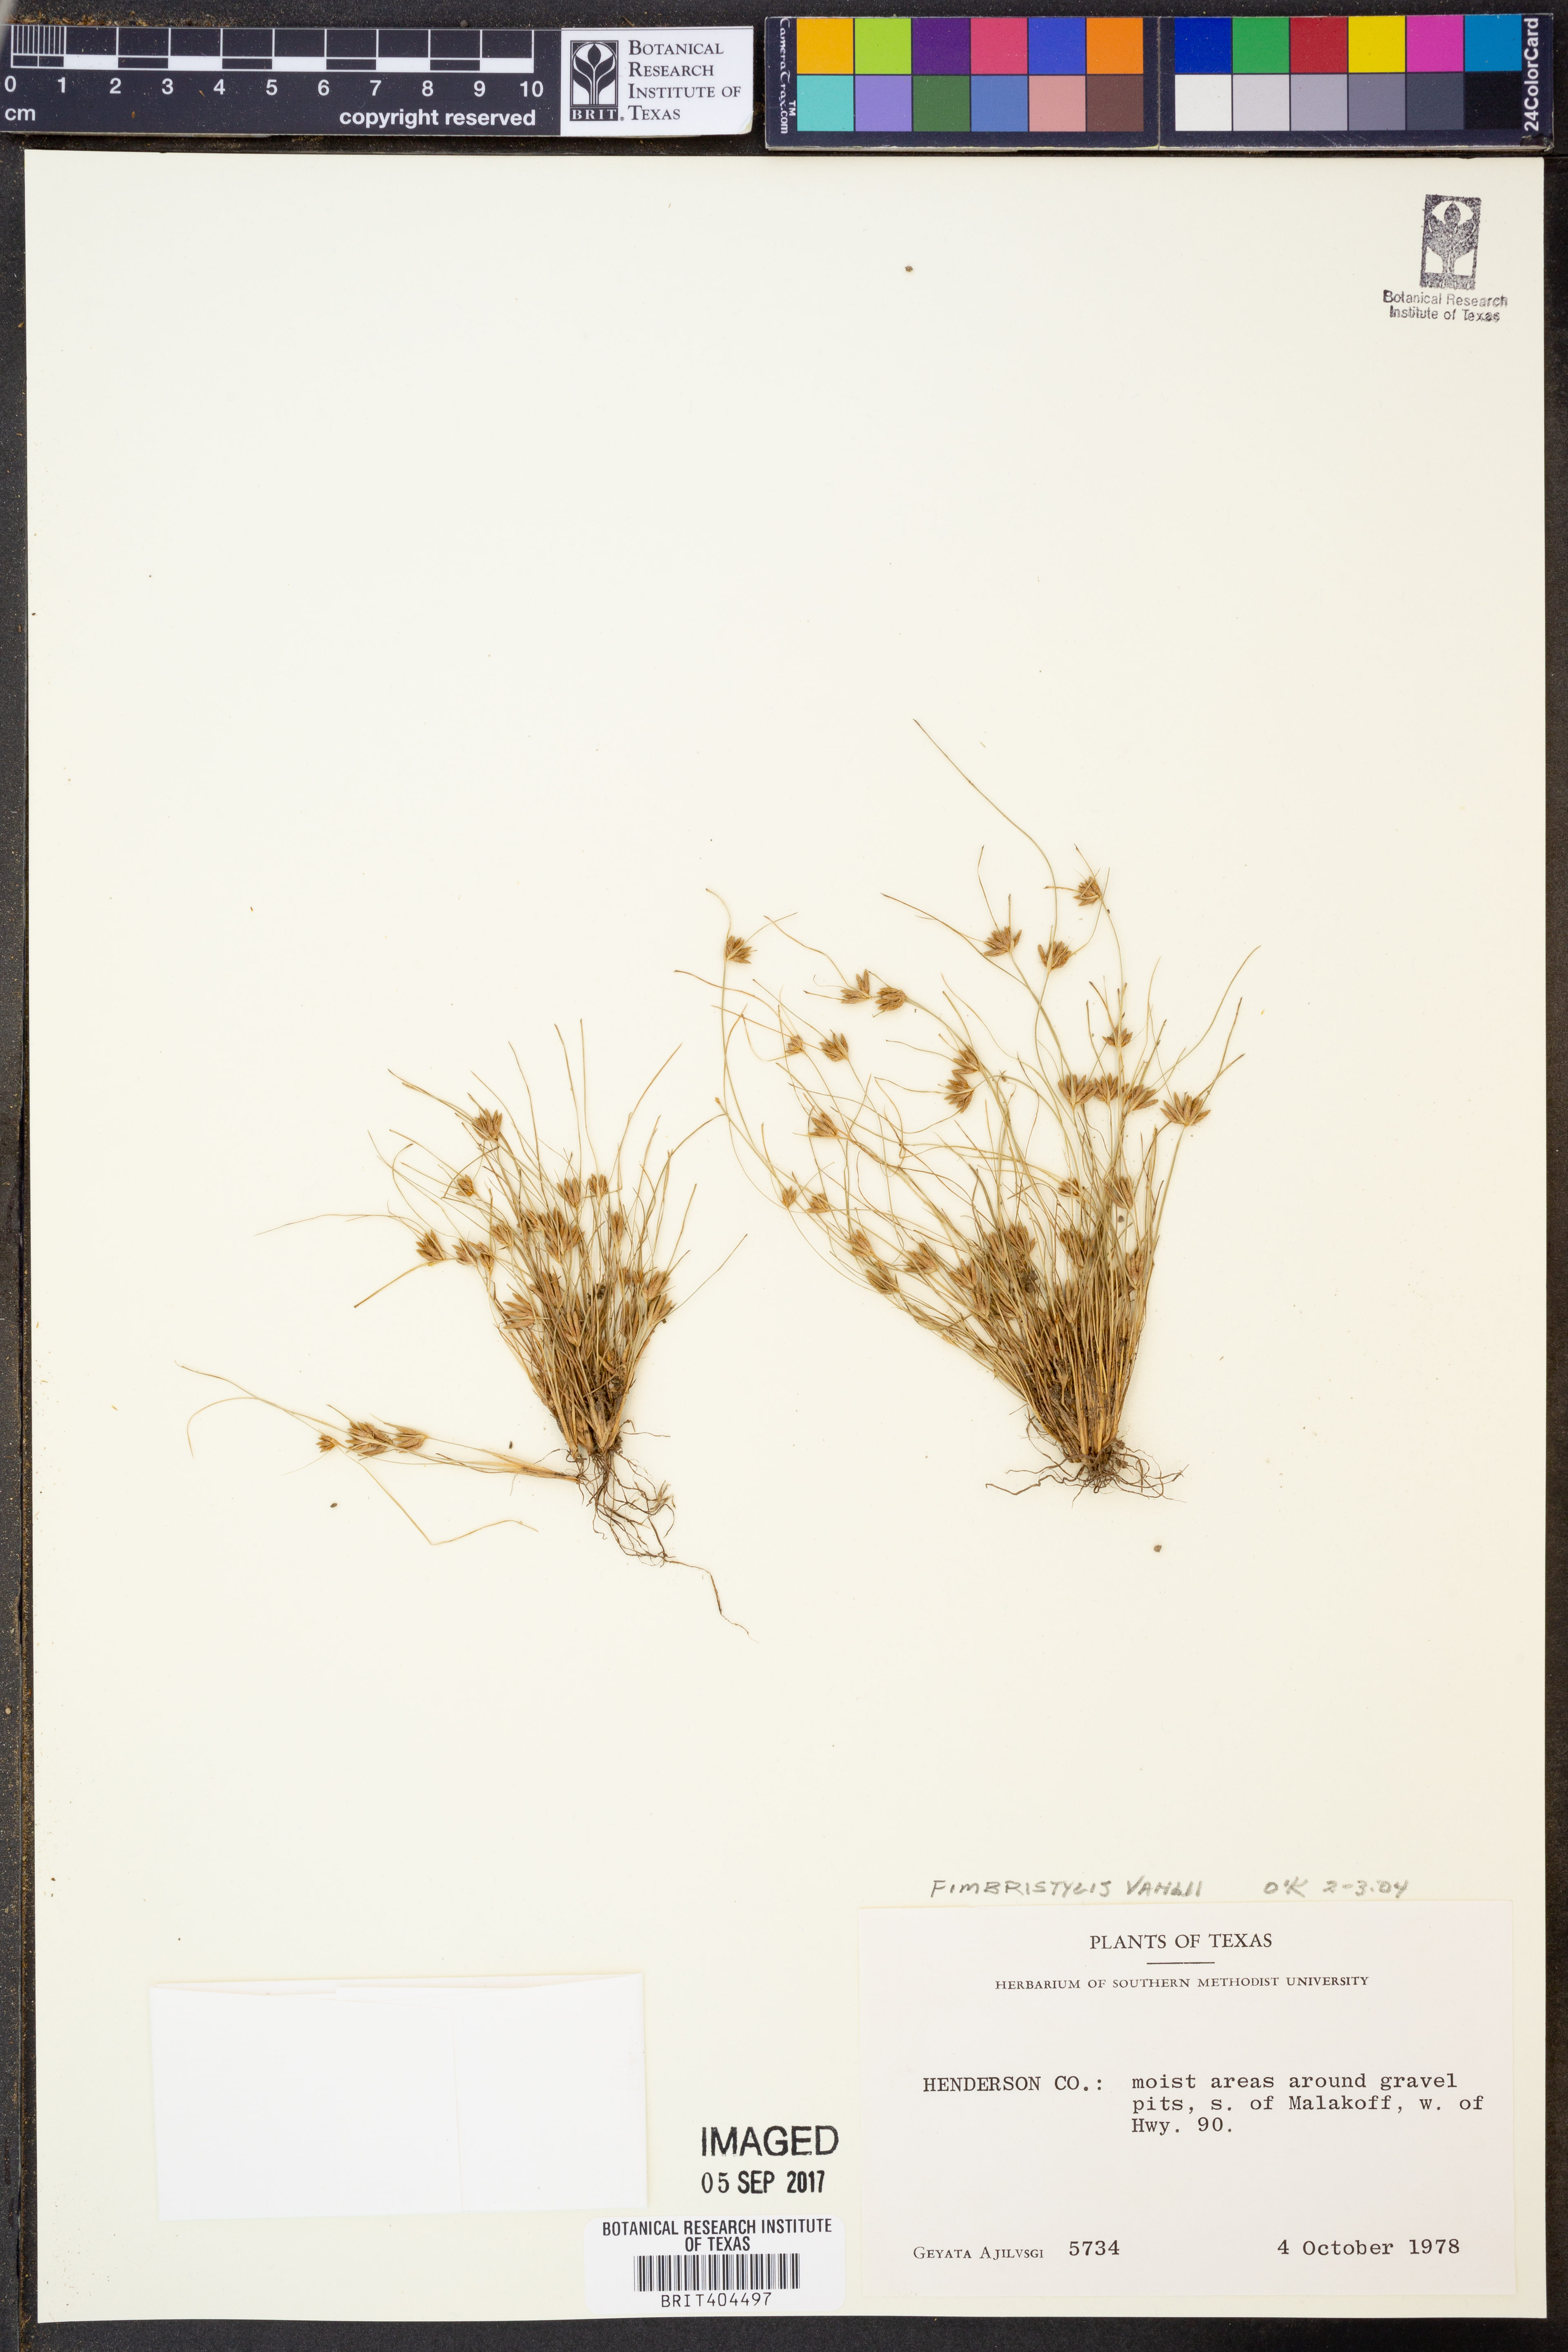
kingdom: Plantae
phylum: Tracheophyta
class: Liliopsida
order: Poales
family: Cyperaceae
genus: Fimbristylis
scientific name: Fimbristylis vahlii
